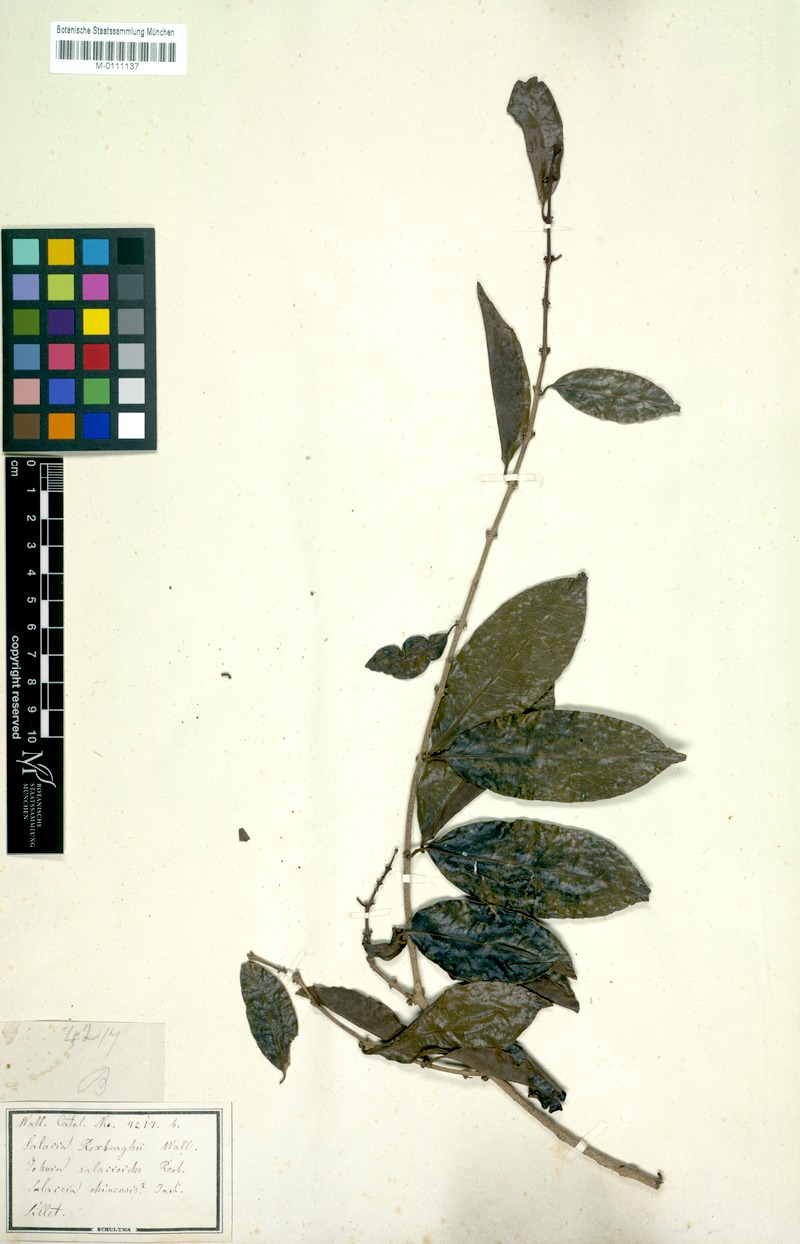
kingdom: Plantae
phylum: Tracheophyta
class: Magnoliopsida
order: Celastrales
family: Celastraceae
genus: Salacia
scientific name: Salacia salacioides
